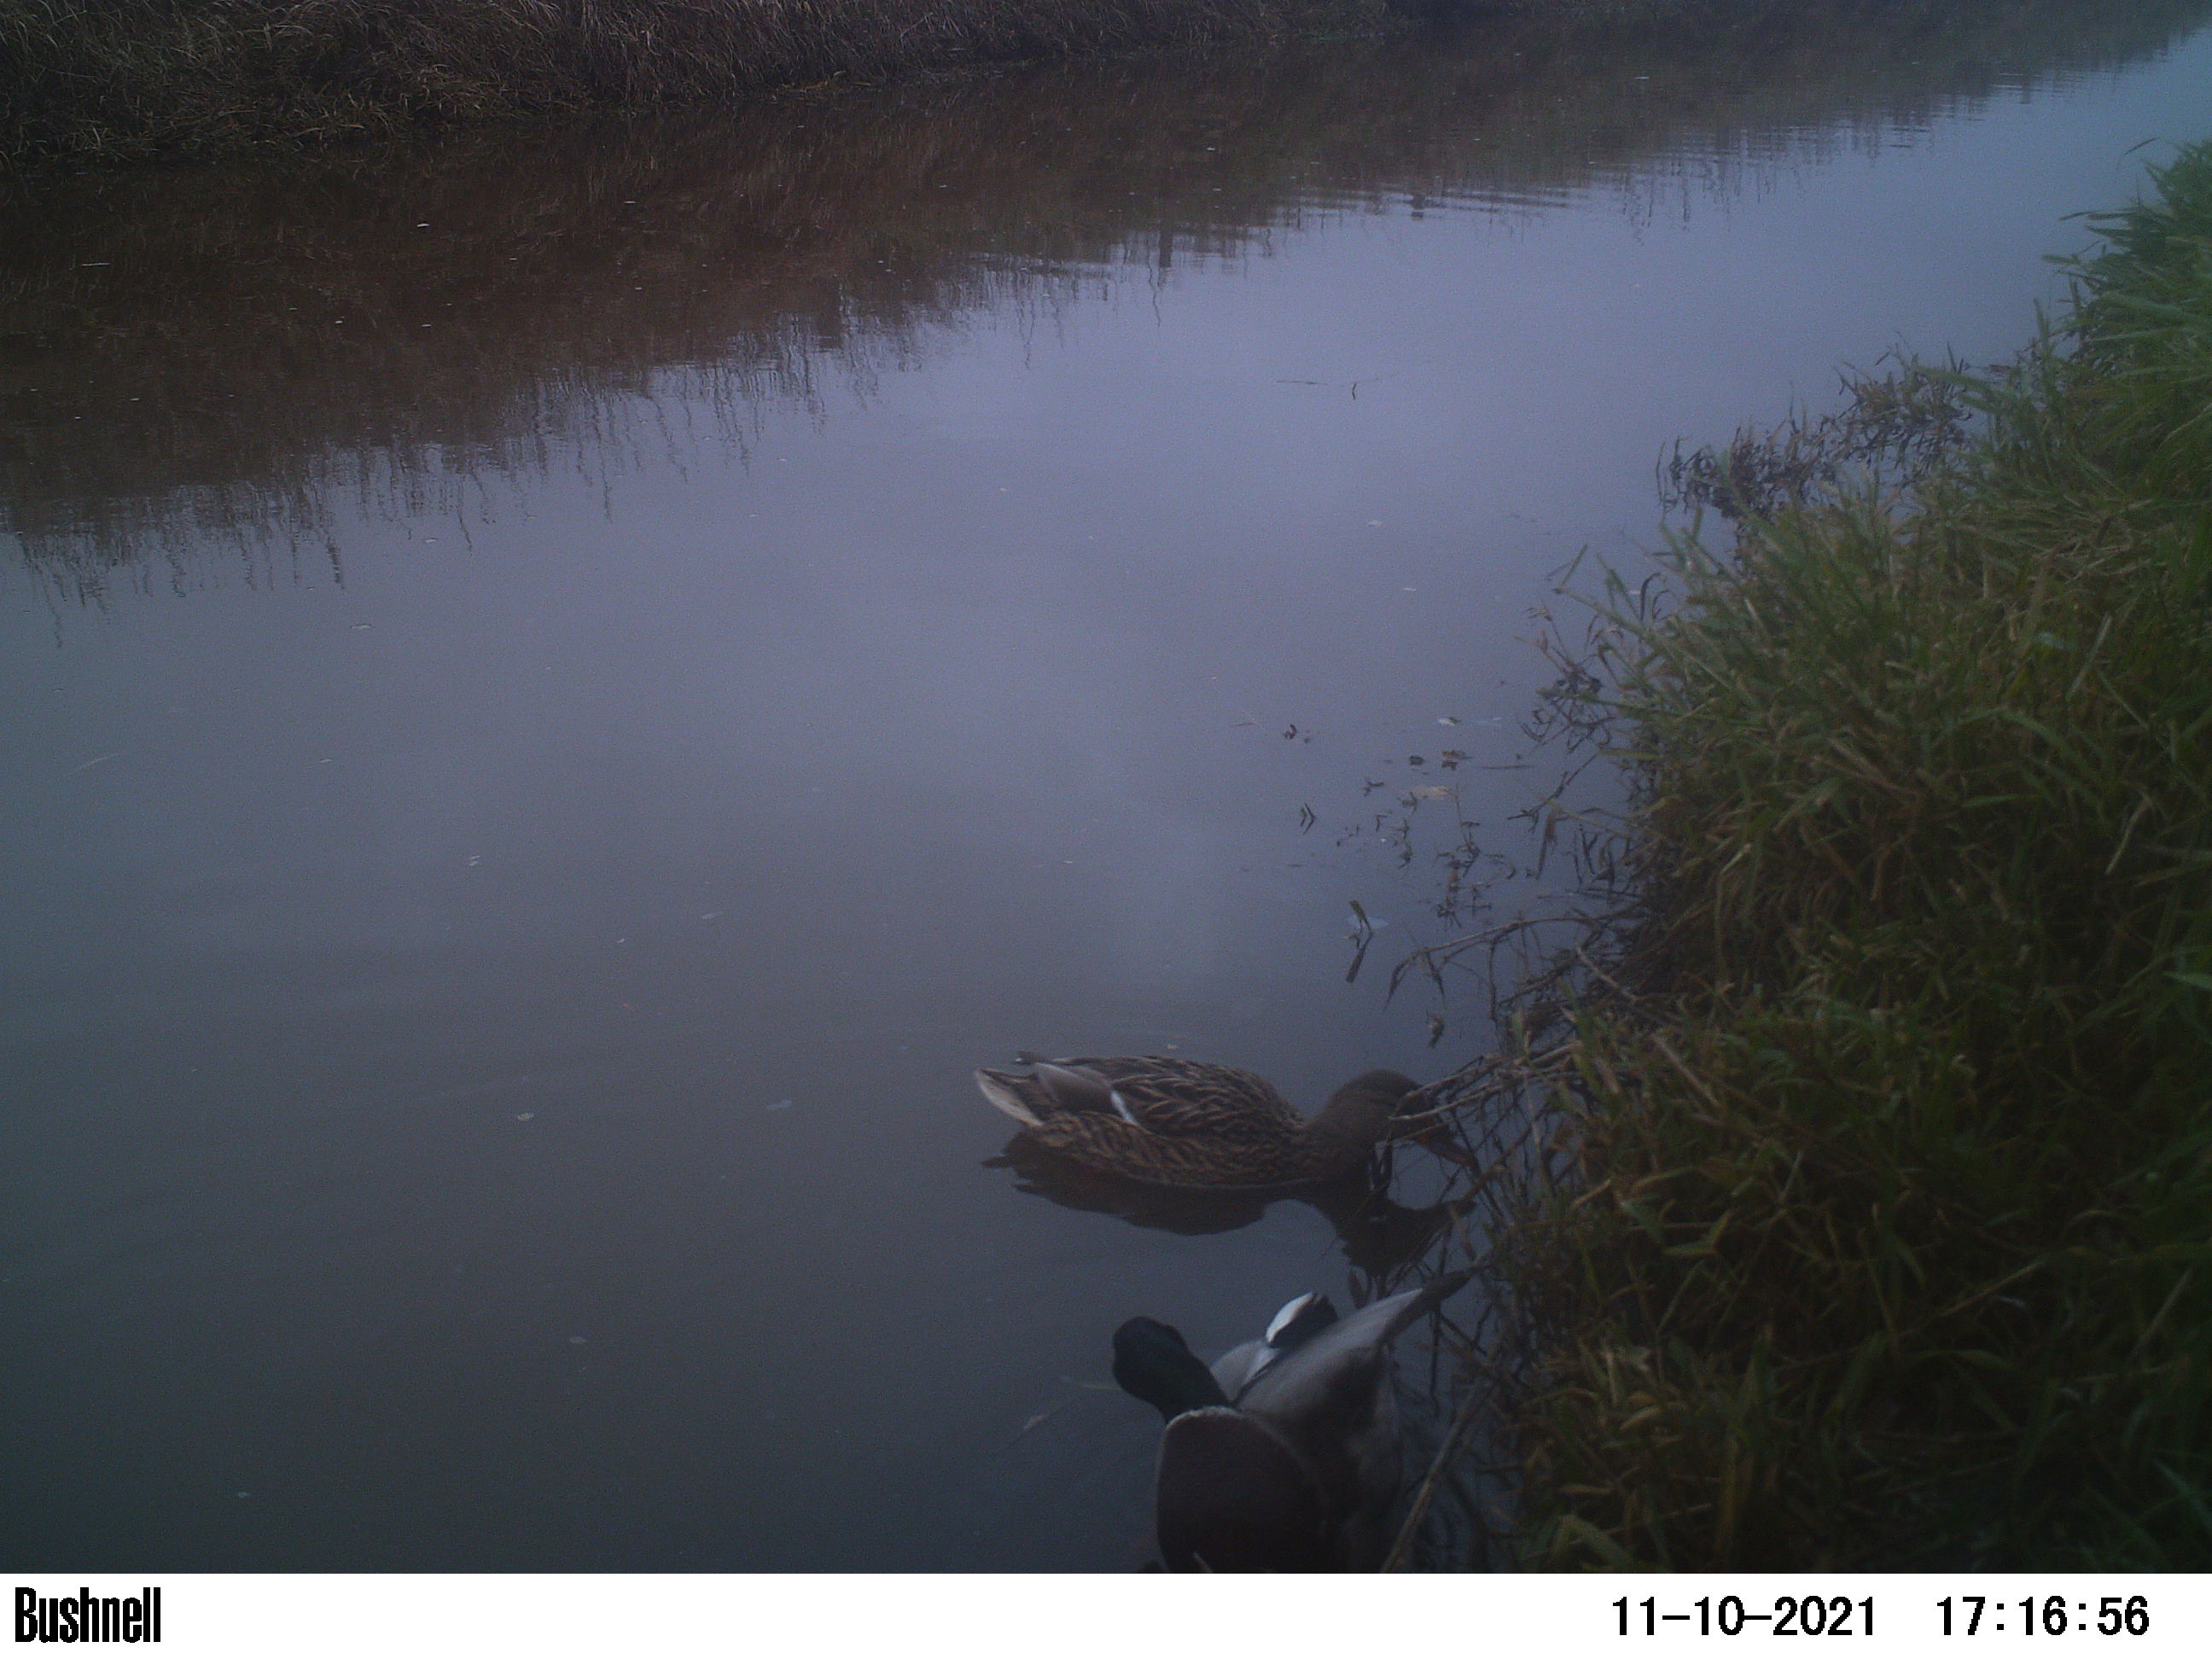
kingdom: Animalia
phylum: Chordata
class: Aves
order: Anseriformes
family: Anatidae
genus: Anas
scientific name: Anas
